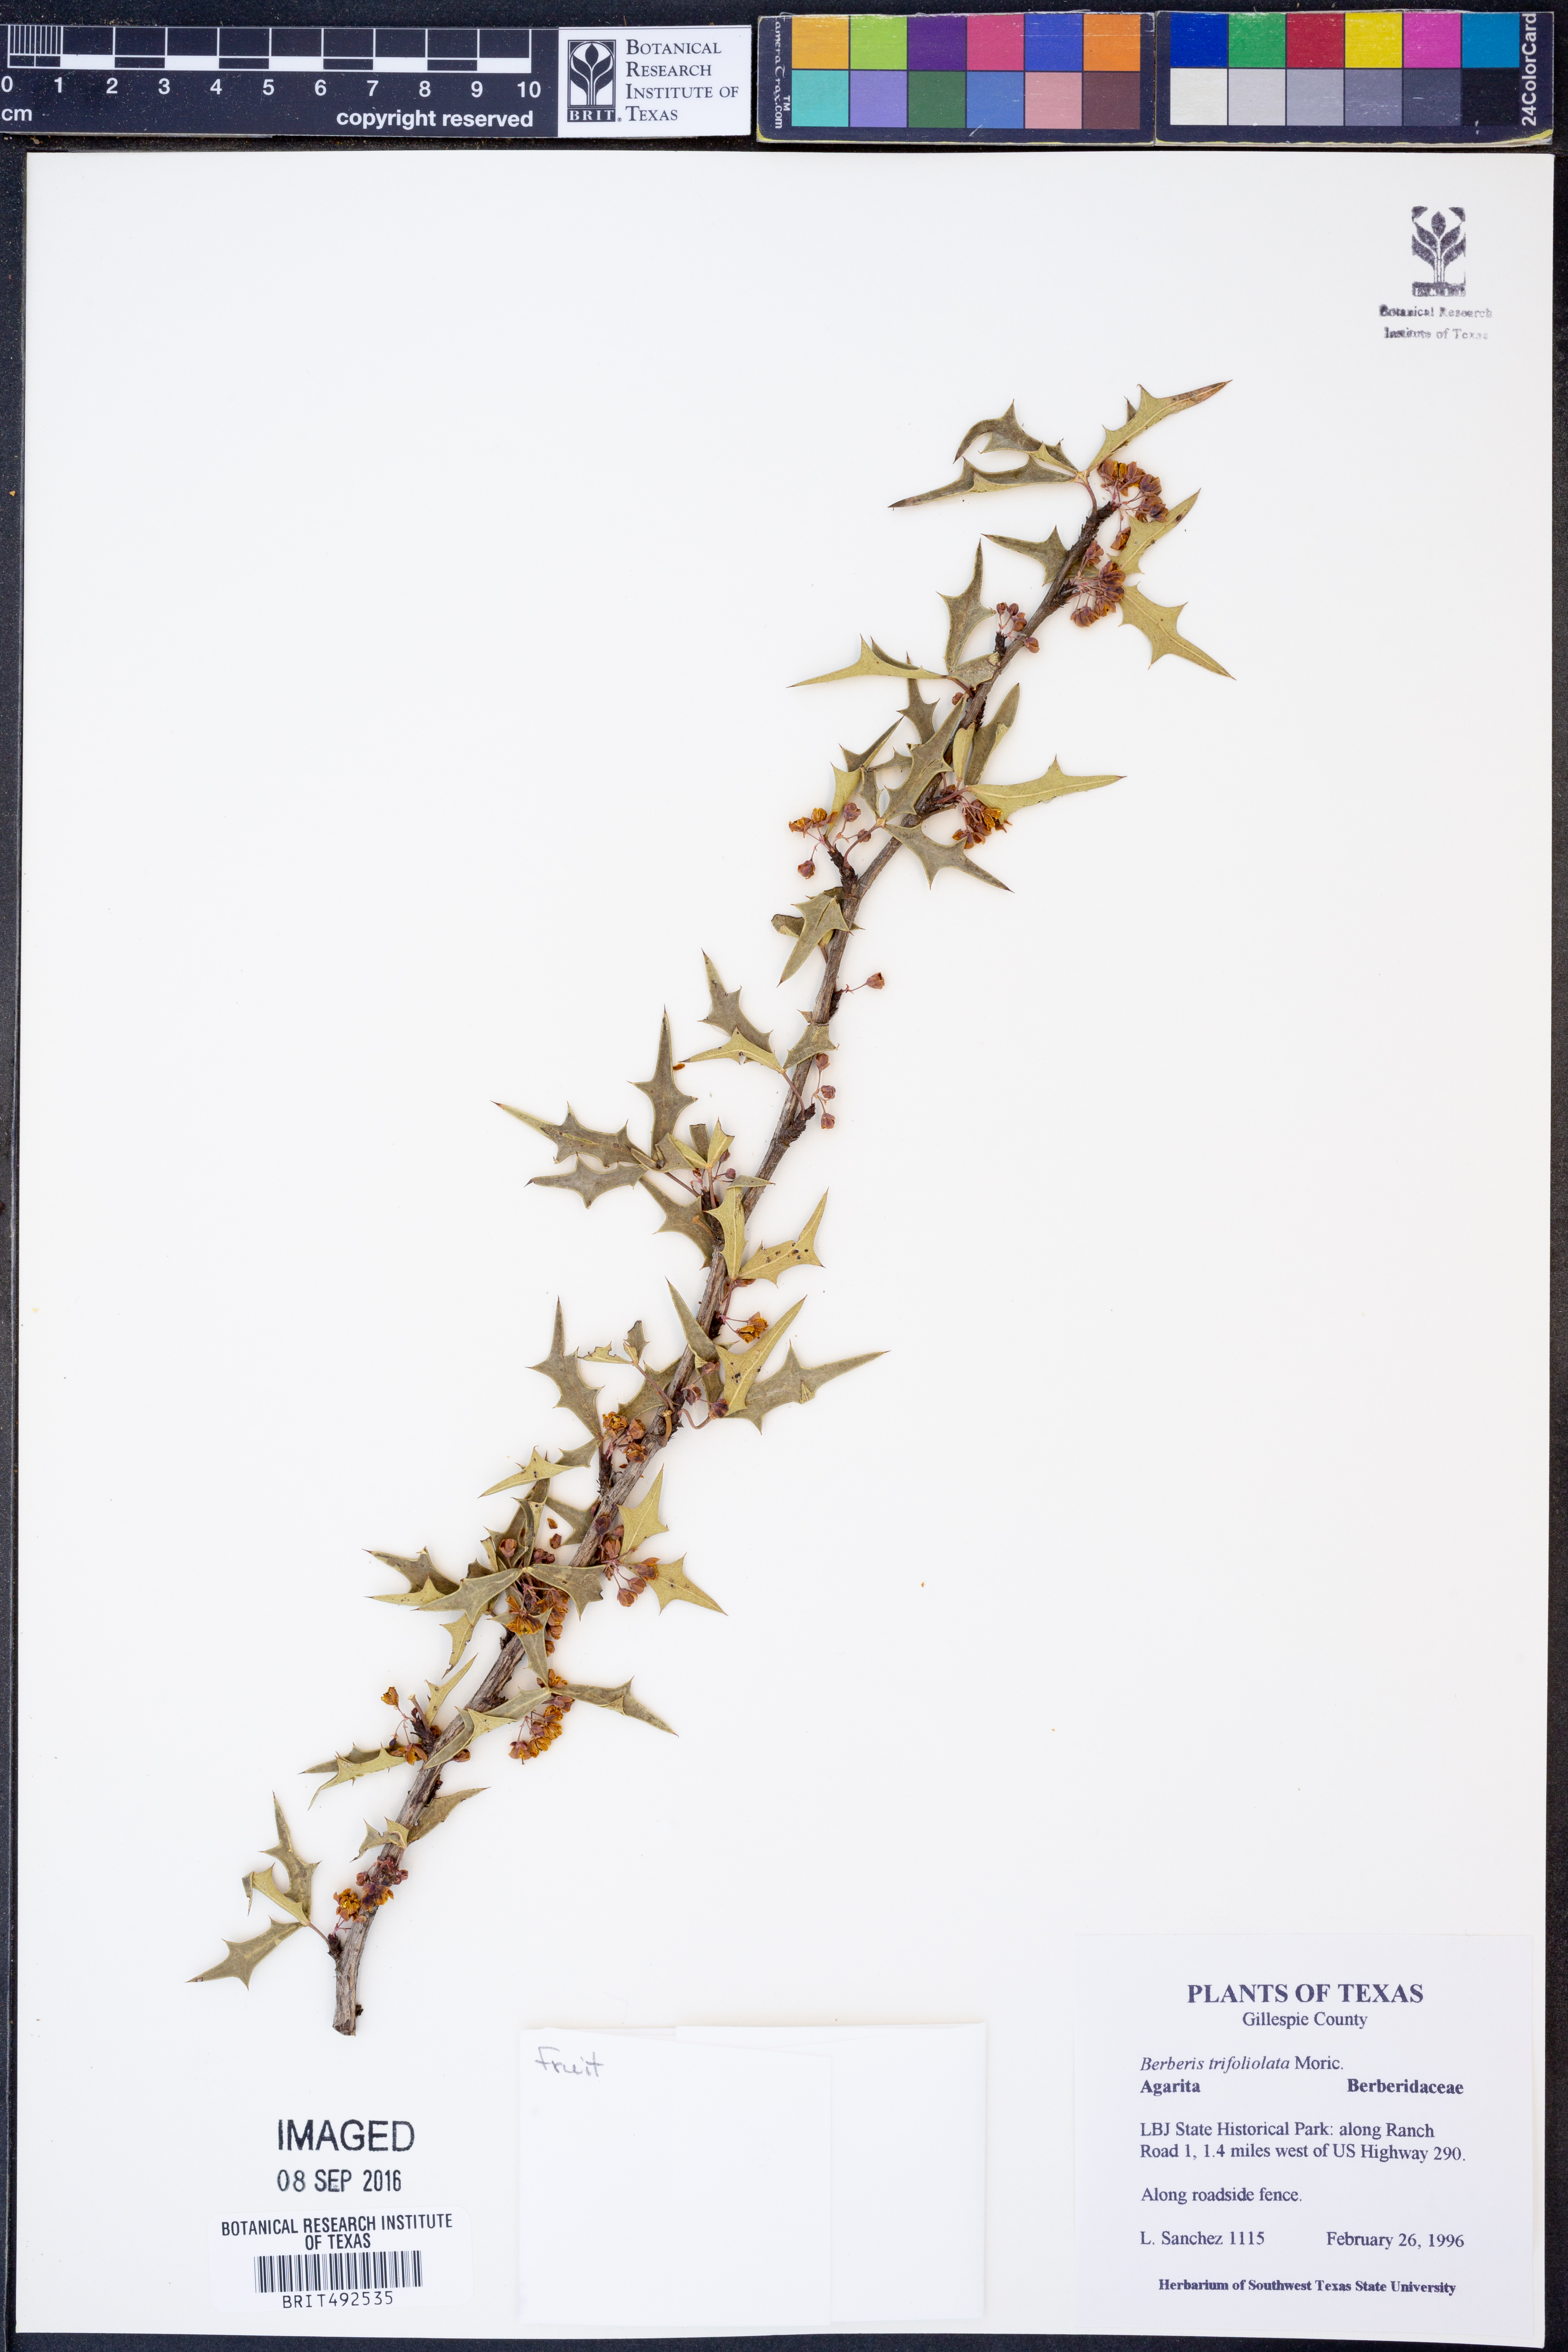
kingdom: Plantae
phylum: Tracheophyta
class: Magnoliopsida
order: Ranunculales
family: Berberidaceae
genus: Alloberberis
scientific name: Alloberberis trifoliolata
